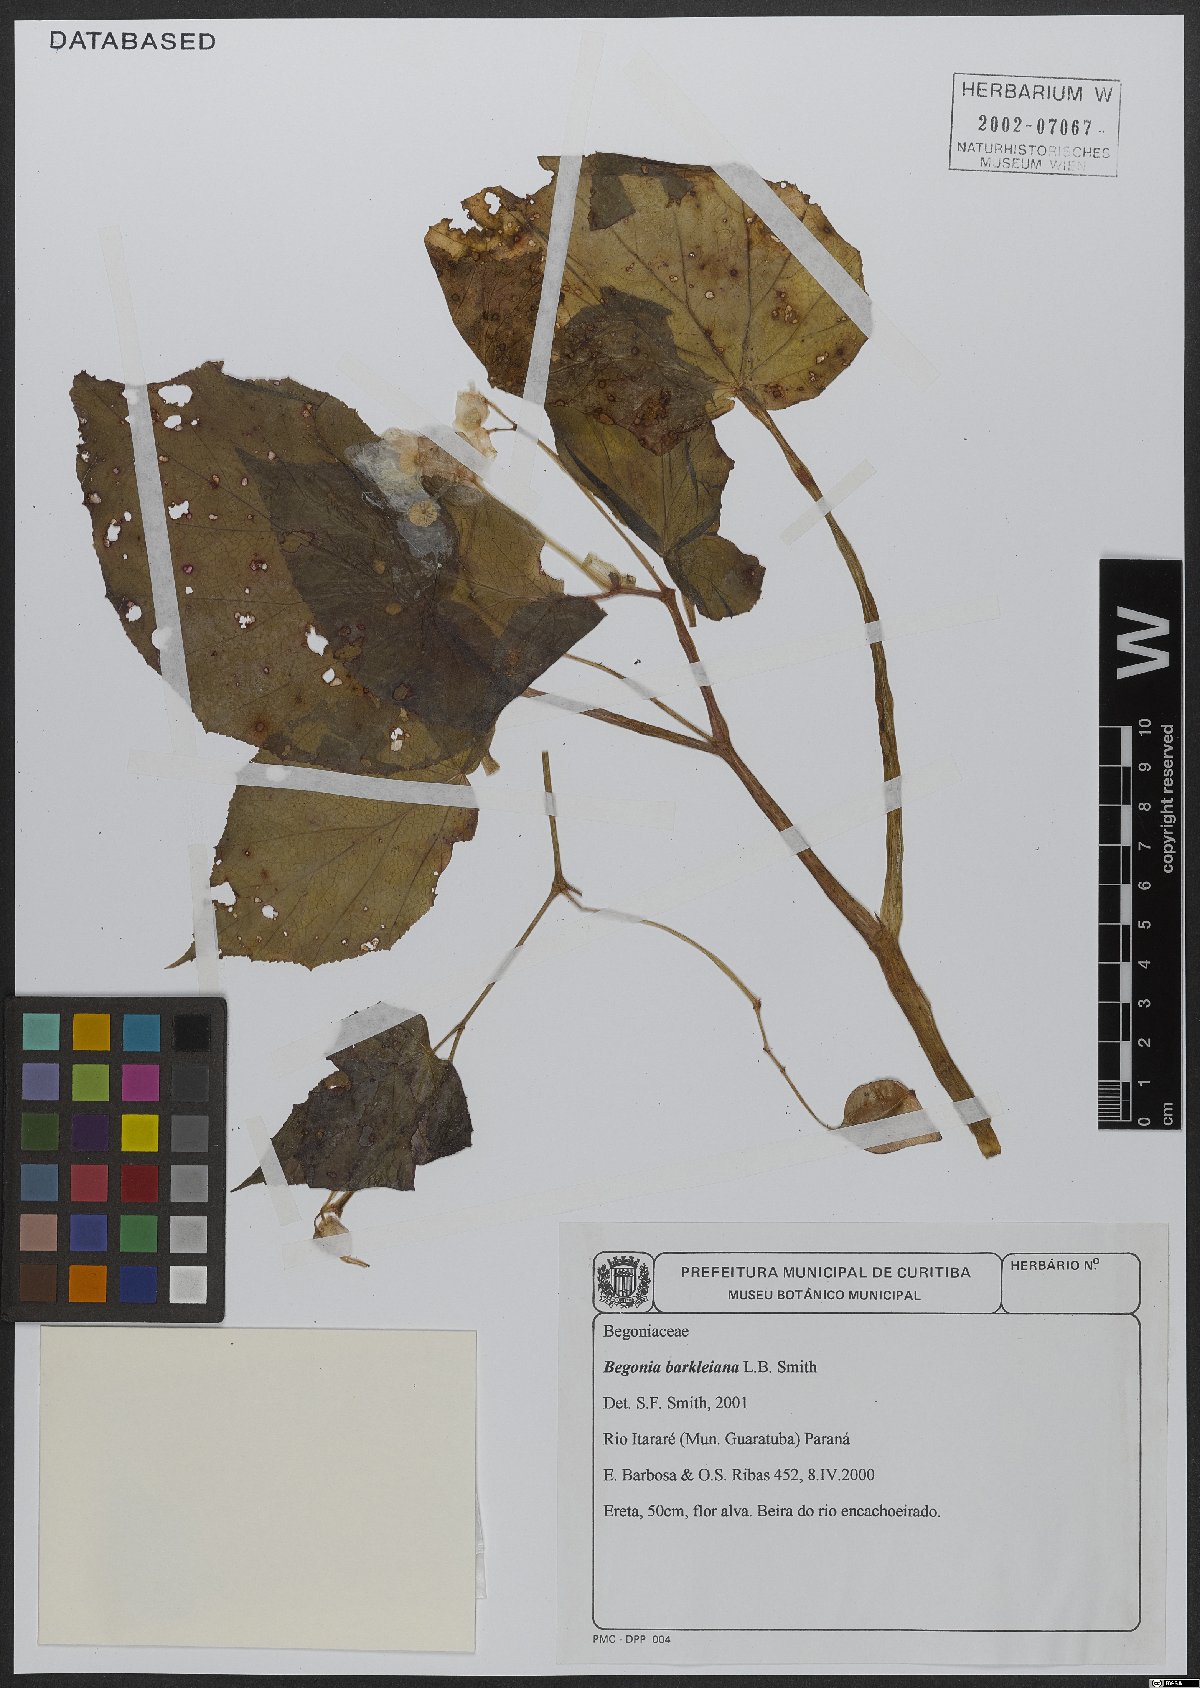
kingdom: Plantae
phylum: Tracheophyta
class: Magnoliopsida
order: Cucurbitales
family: Begoniaceae
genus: Begonia
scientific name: Begonia barkleyana
